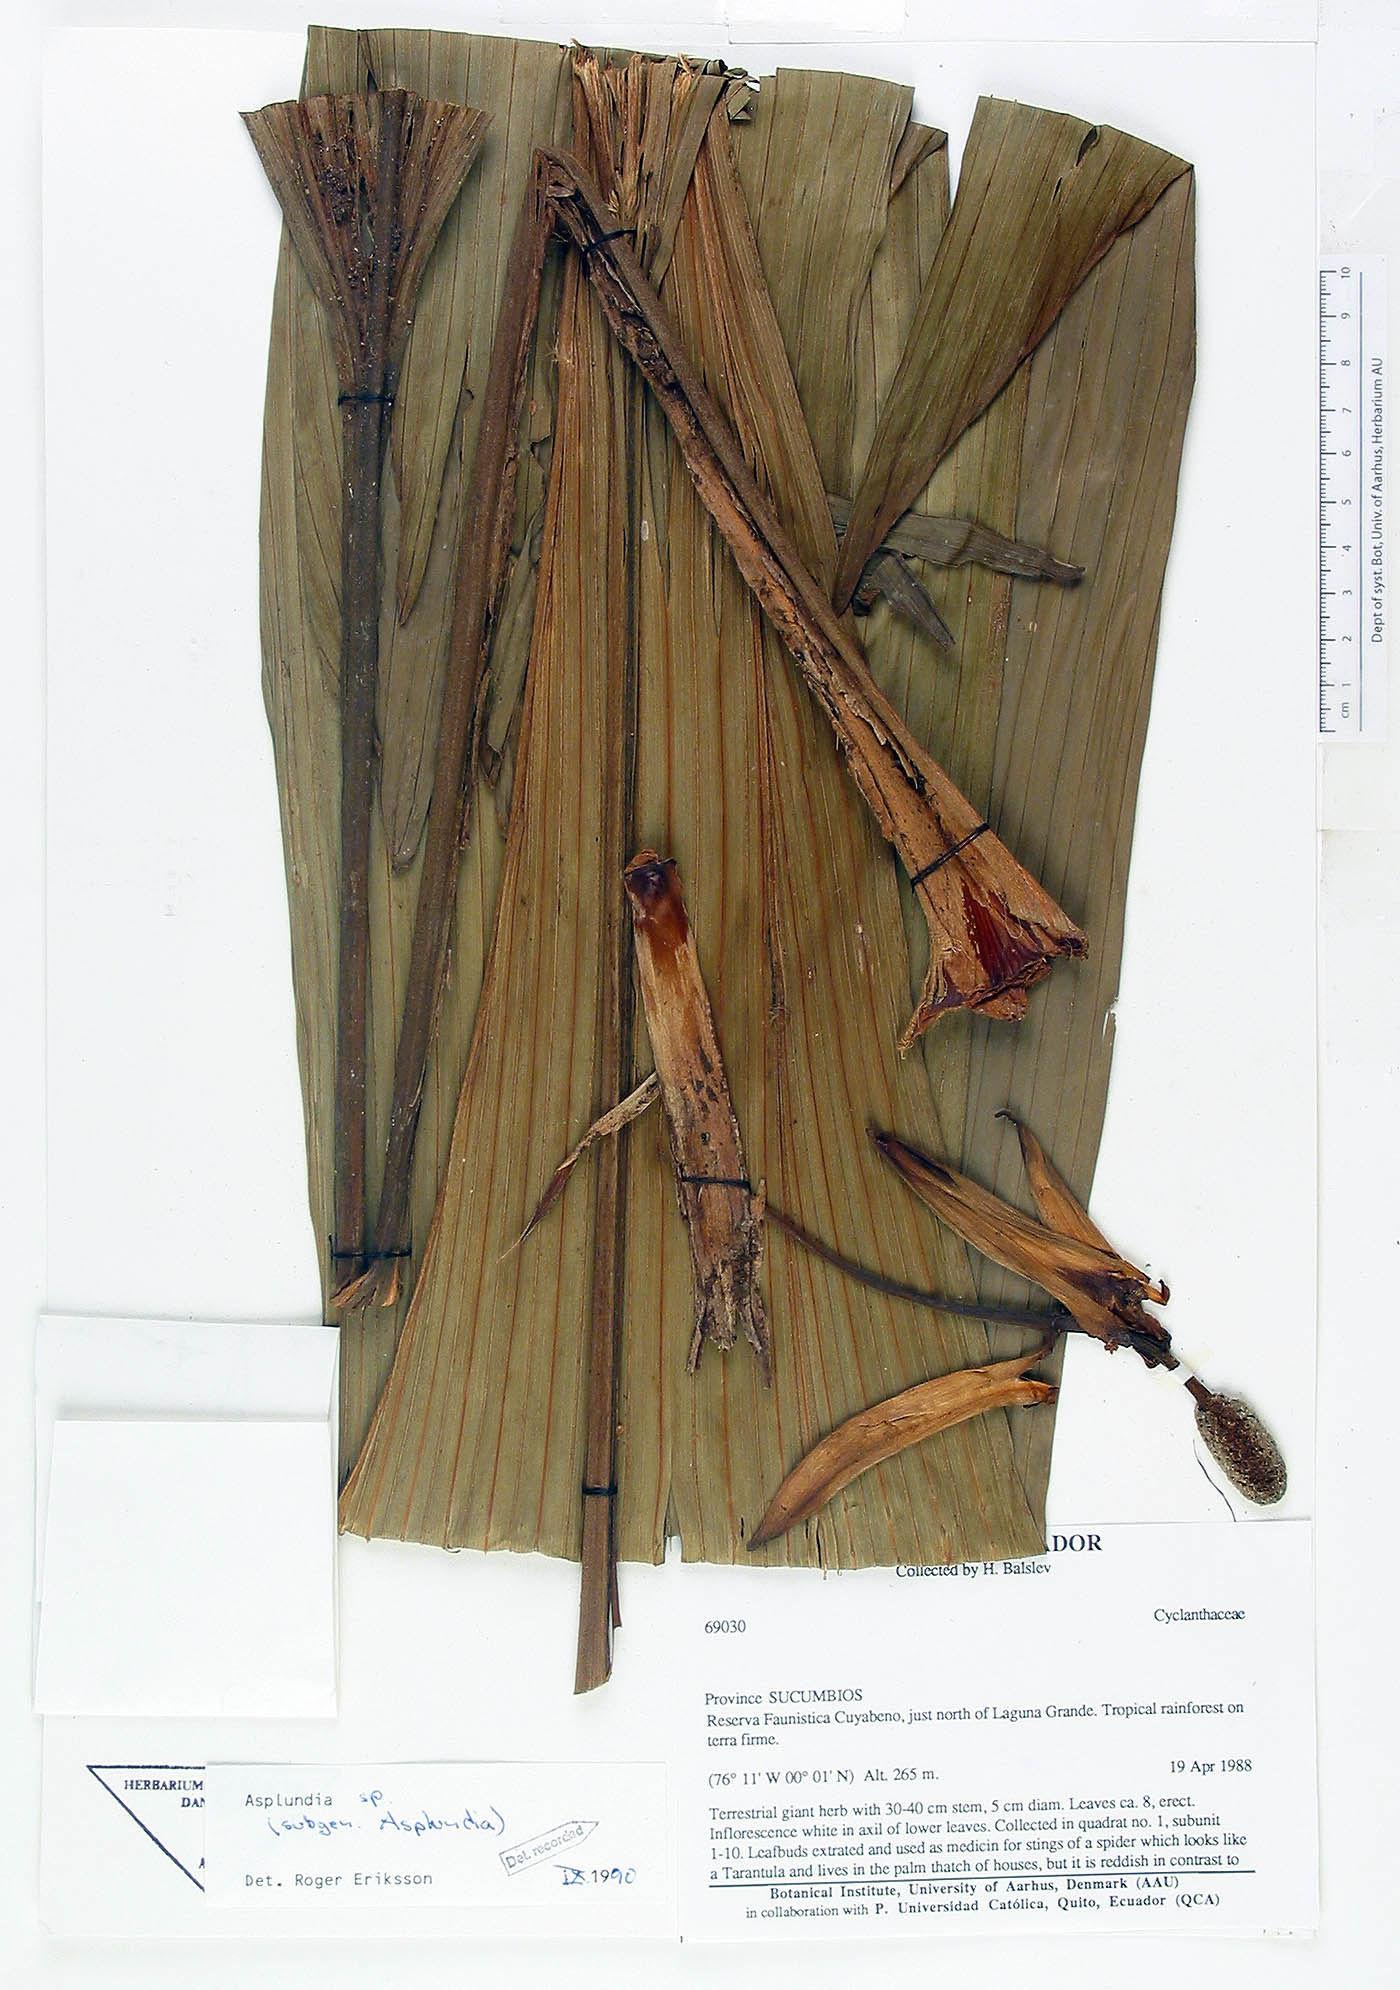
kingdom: Plantae
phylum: Tracheophyta
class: Liliopsida
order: Pandanales
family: Cyclanthaceae
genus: Asplundia
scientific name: Asplundia
